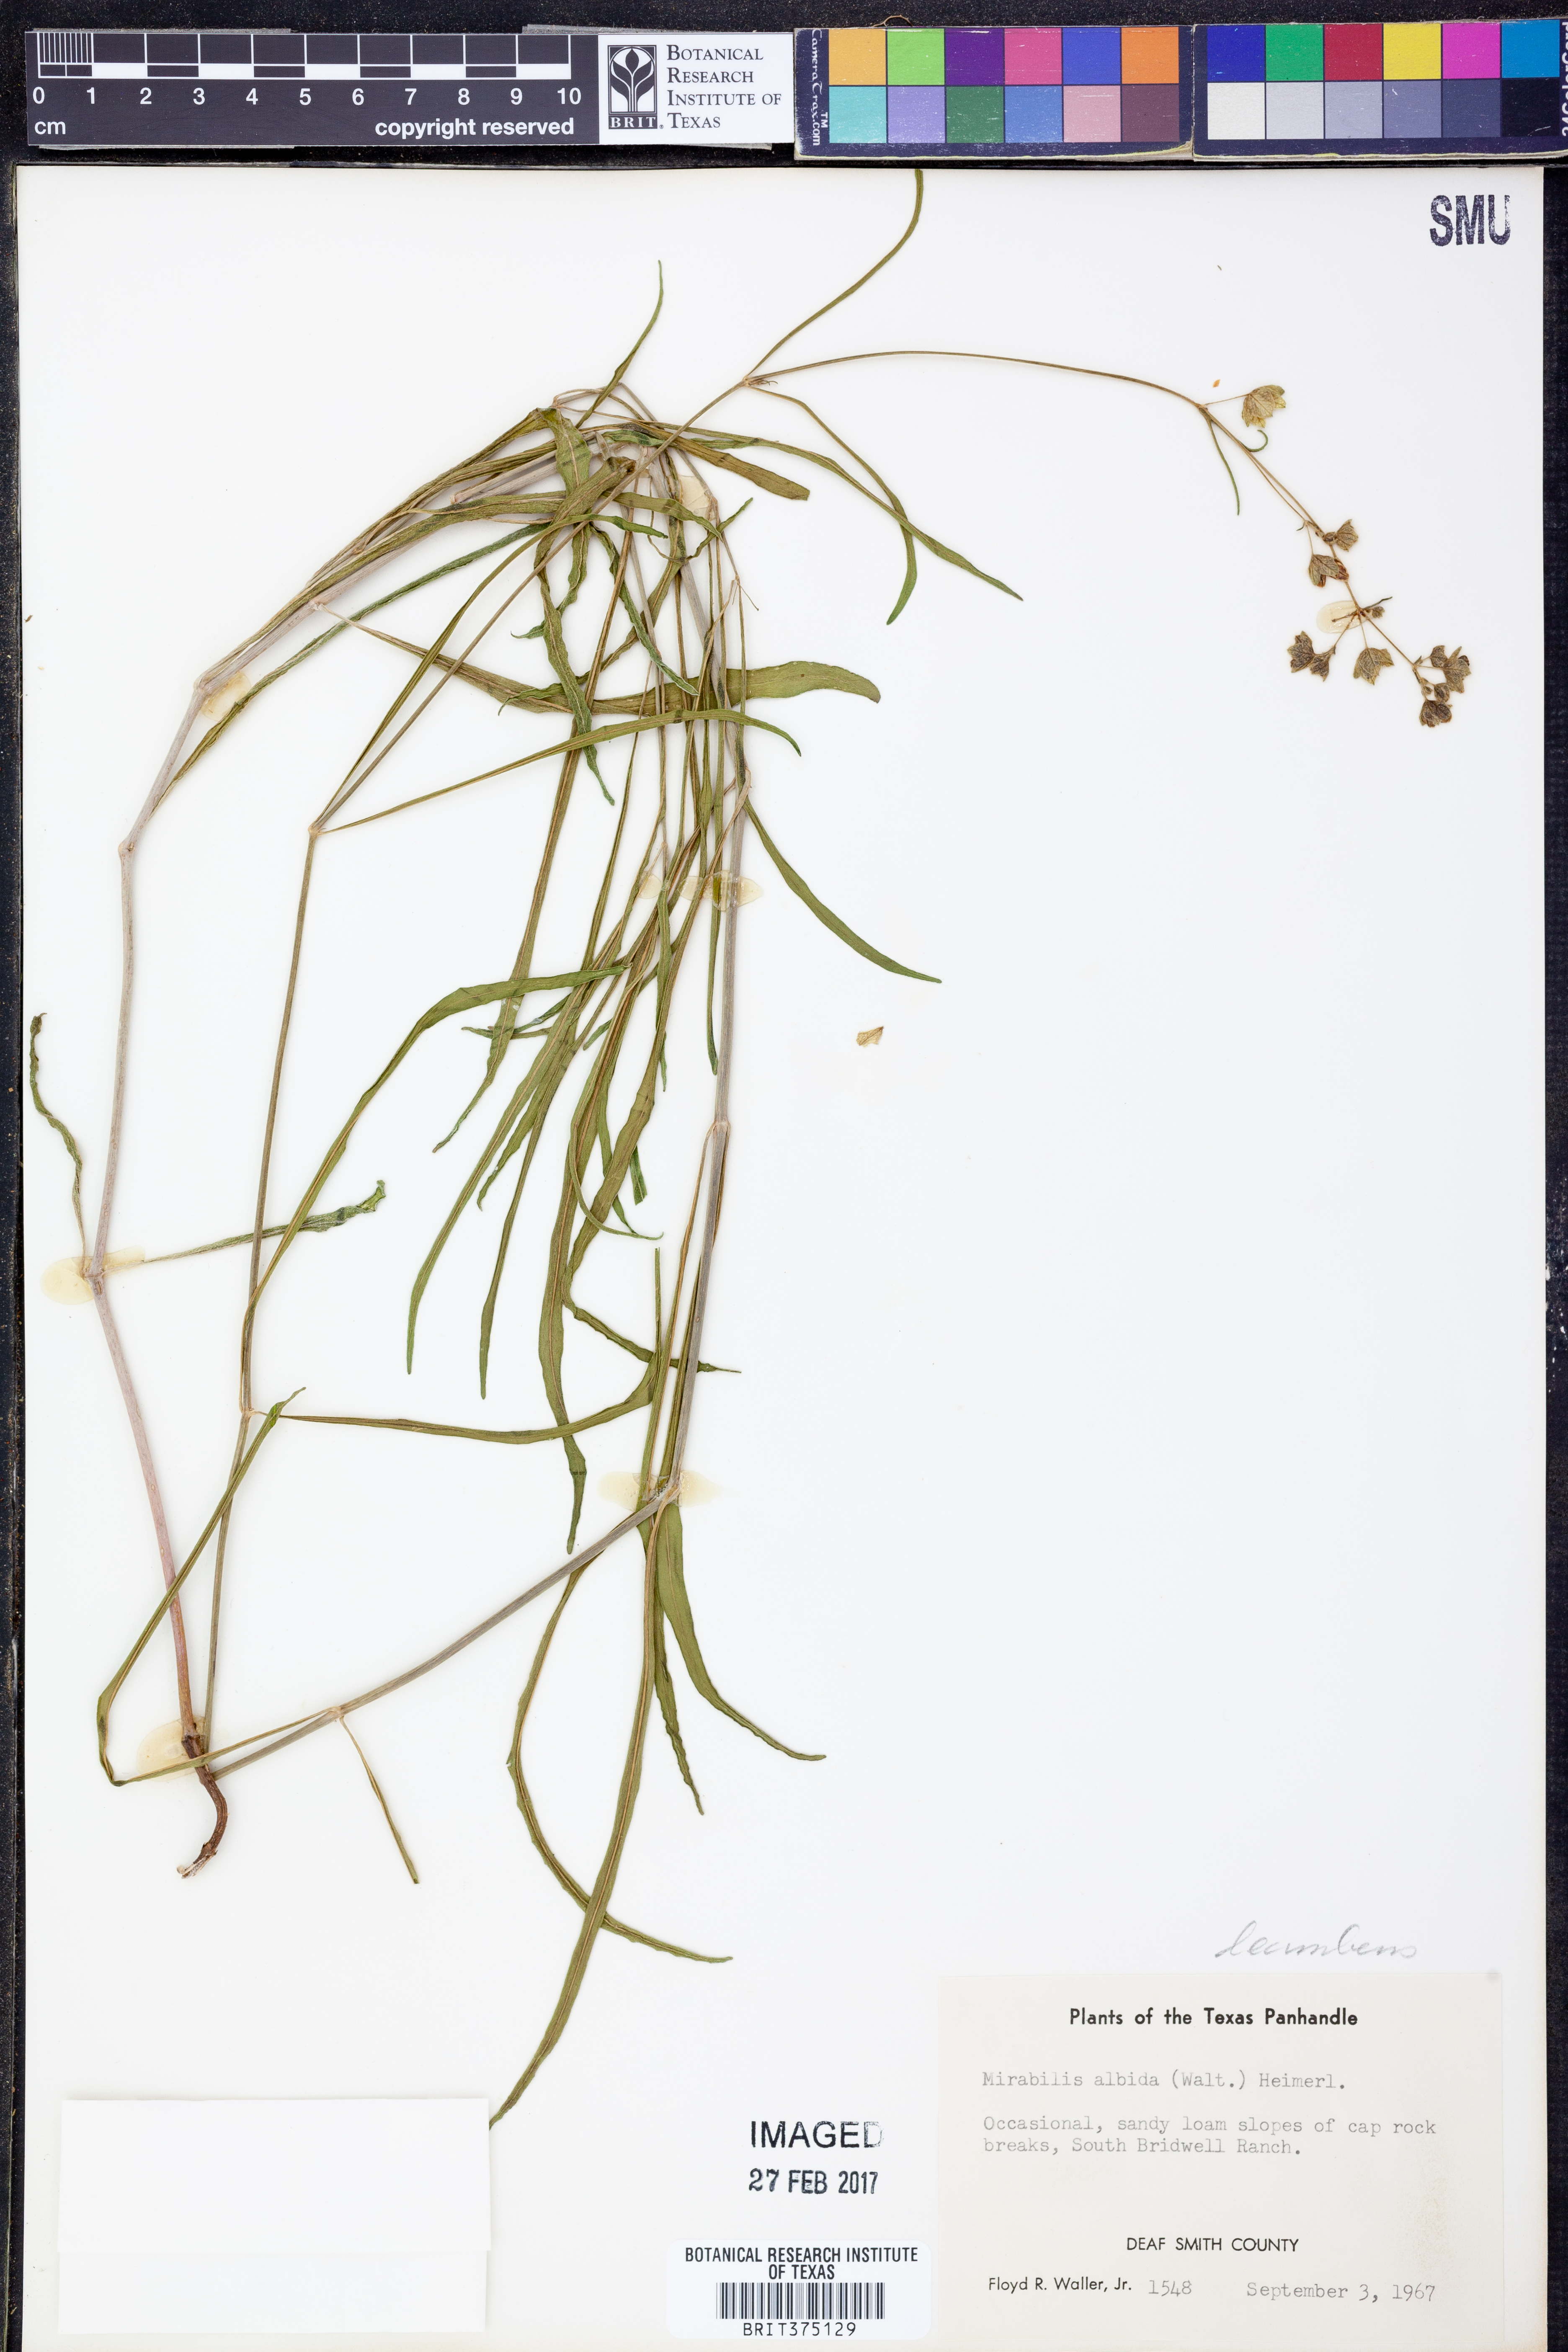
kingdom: Plantae
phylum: Tracheophyta
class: Magnoliopsida
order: Caryophyllales
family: Nyctaginaceae
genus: Mirabilis
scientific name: Mirabilis linearis
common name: Linear-leaved four-o'clock
